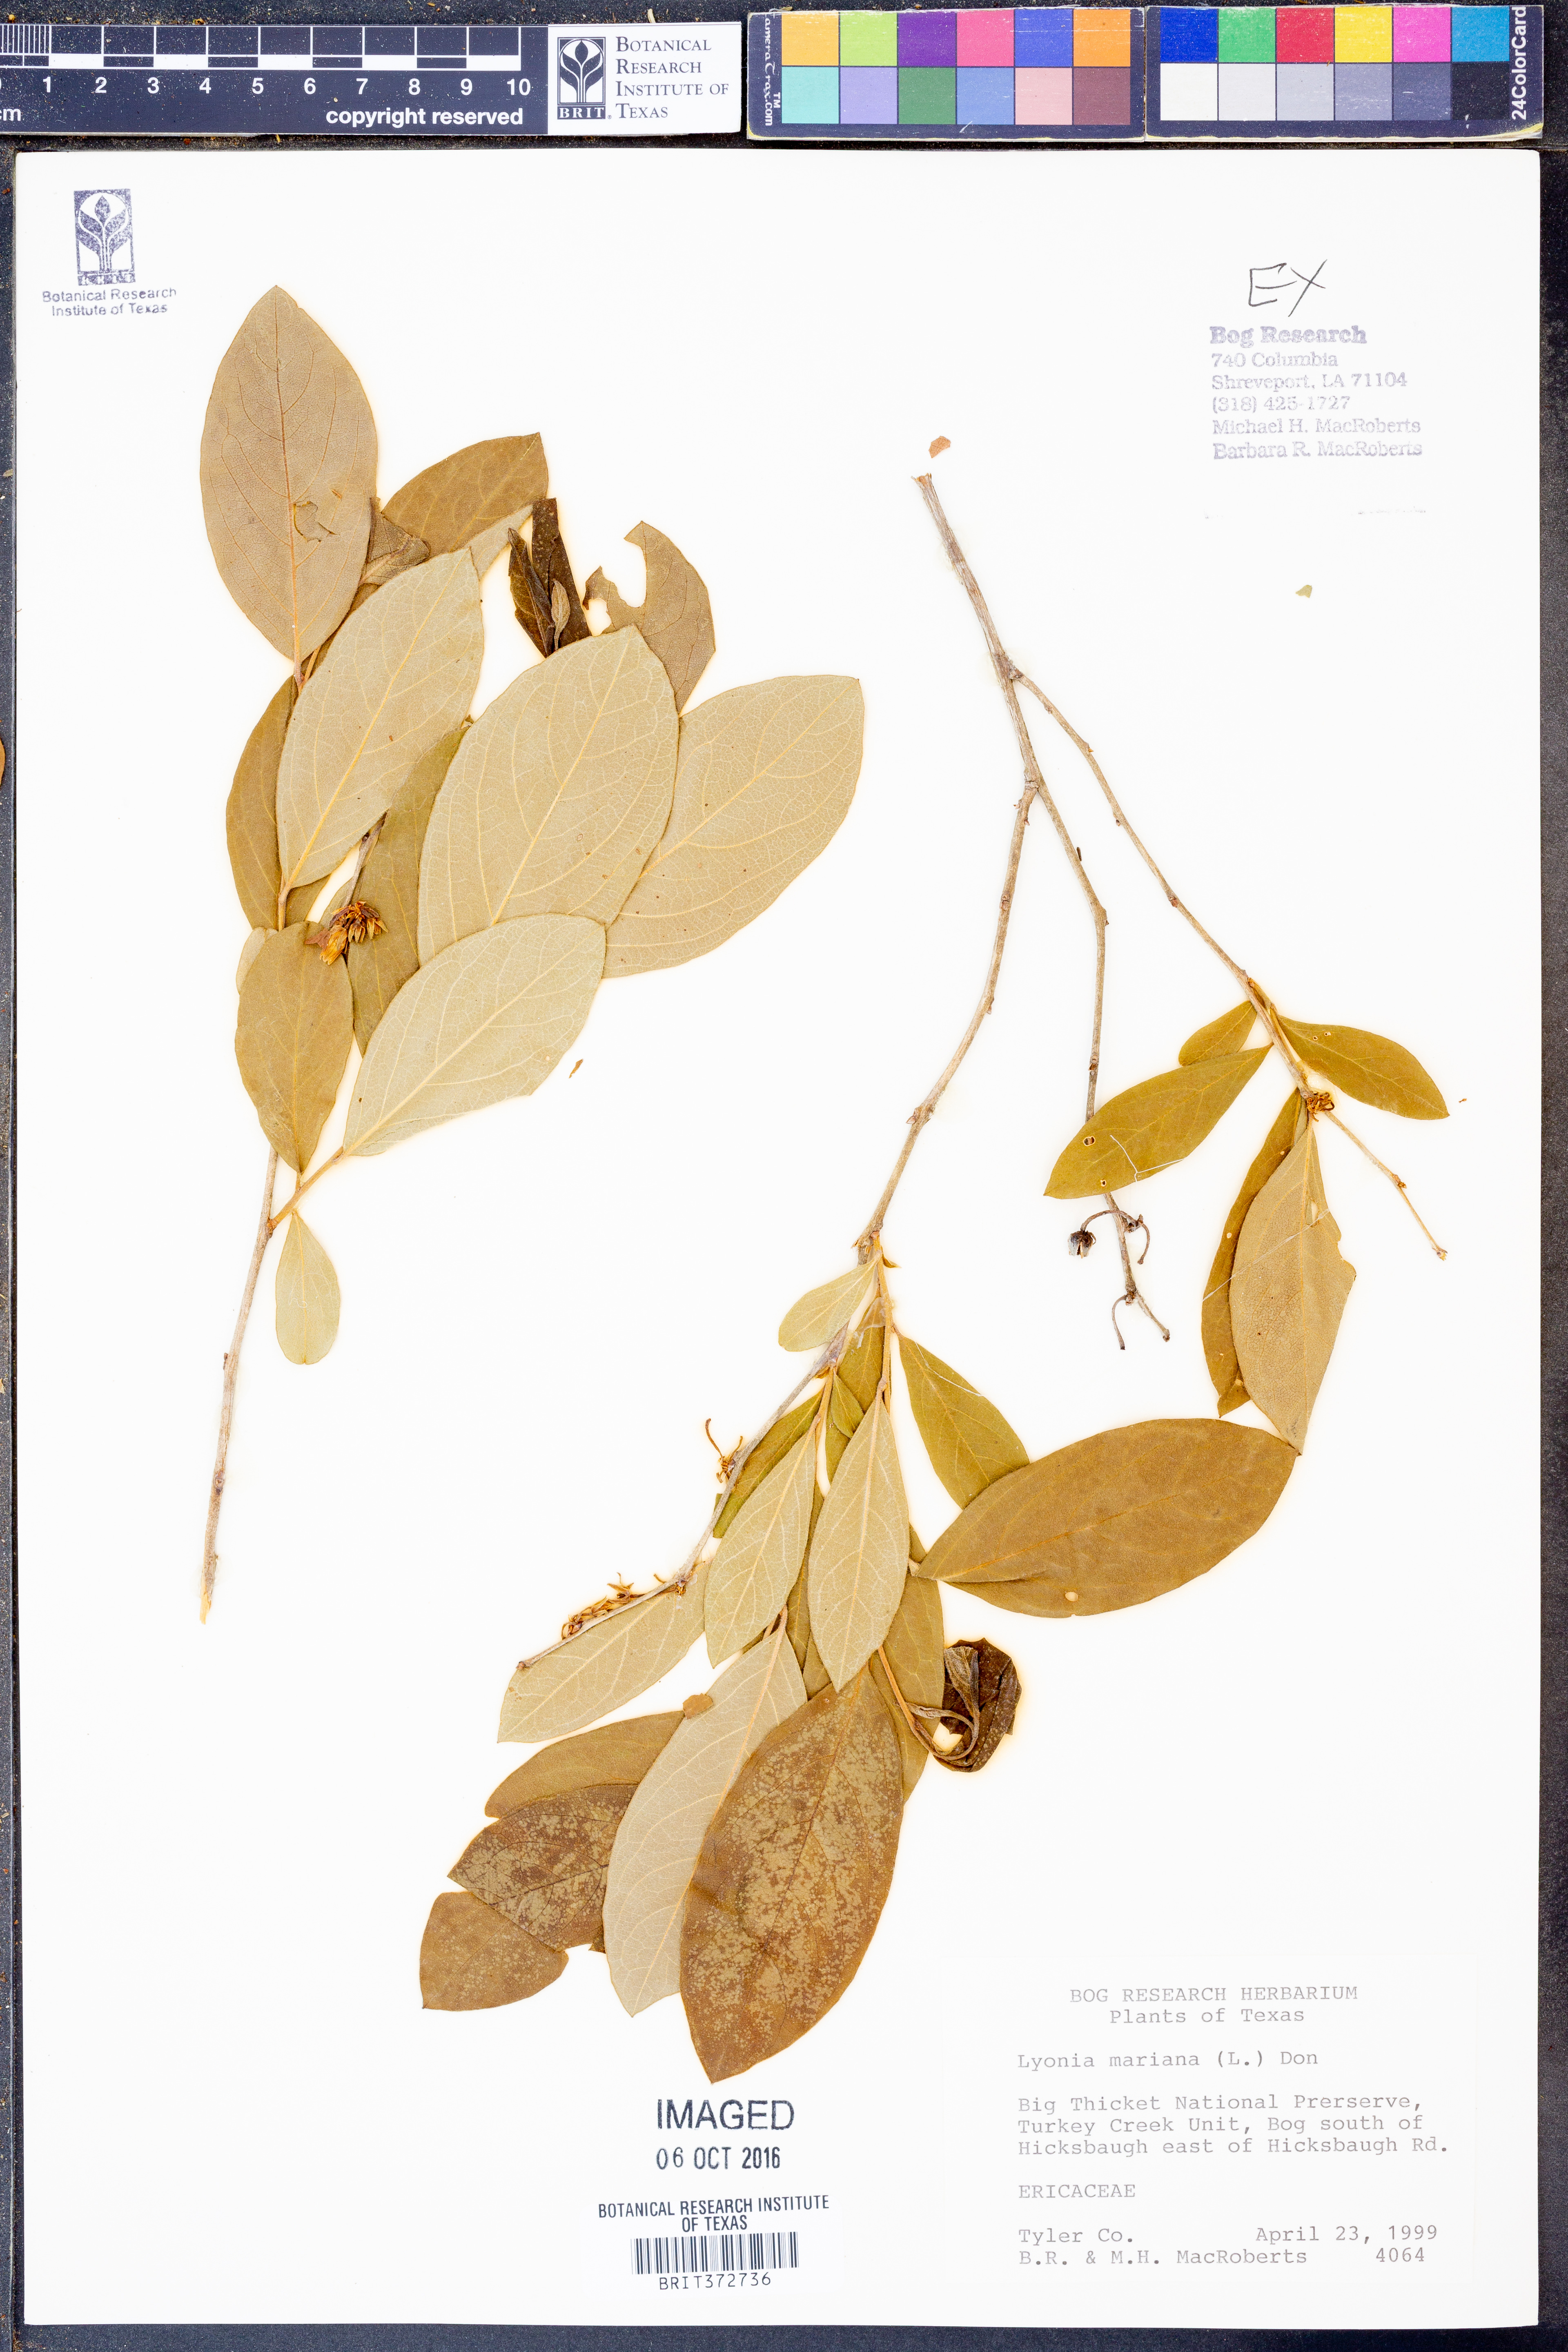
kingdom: Plantae
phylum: Tracheophyta
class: Magnoliopsida
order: Ericales
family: Ericaceae
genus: Lyonia
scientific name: Lyonia mariana
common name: Staggerbush
